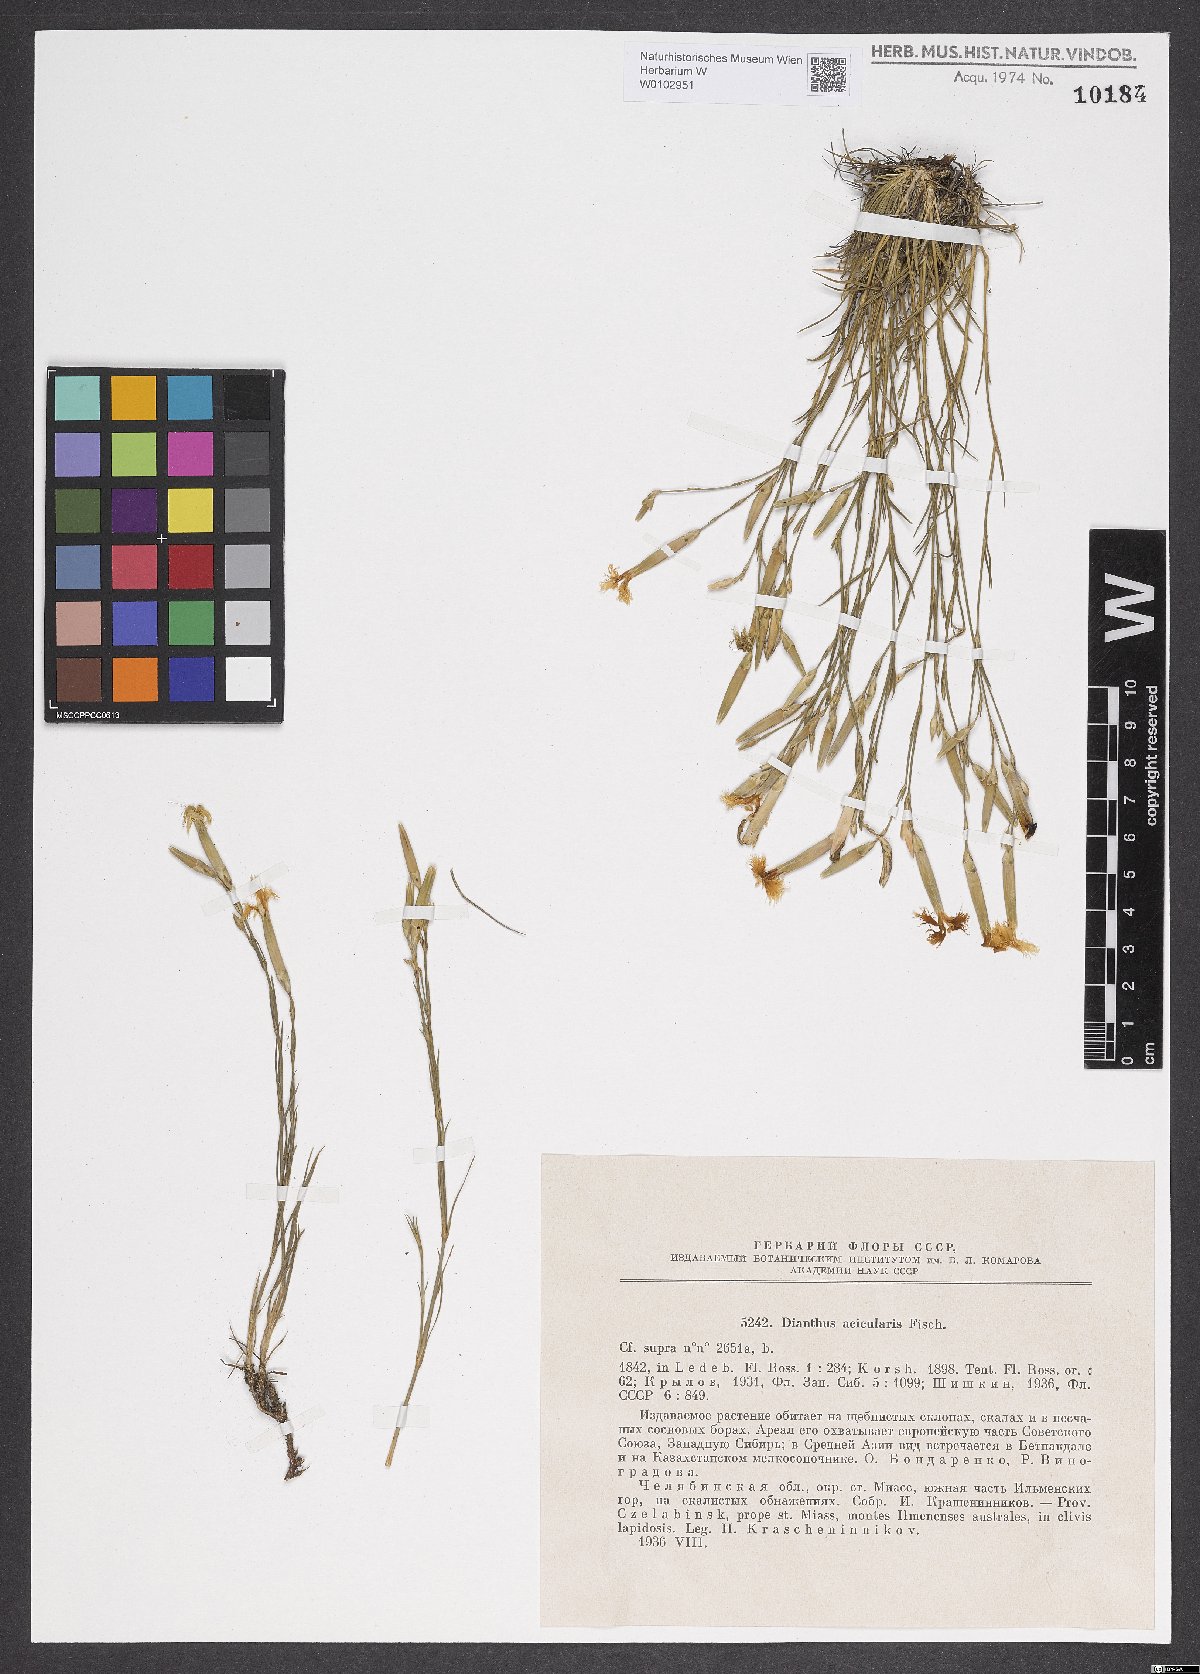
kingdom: Plantae
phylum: Tracheophyta
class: Magnoliopsida
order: Caryophyllales
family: Caryophyllaceae
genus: Dianthus
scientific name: Dianthus acicularis
